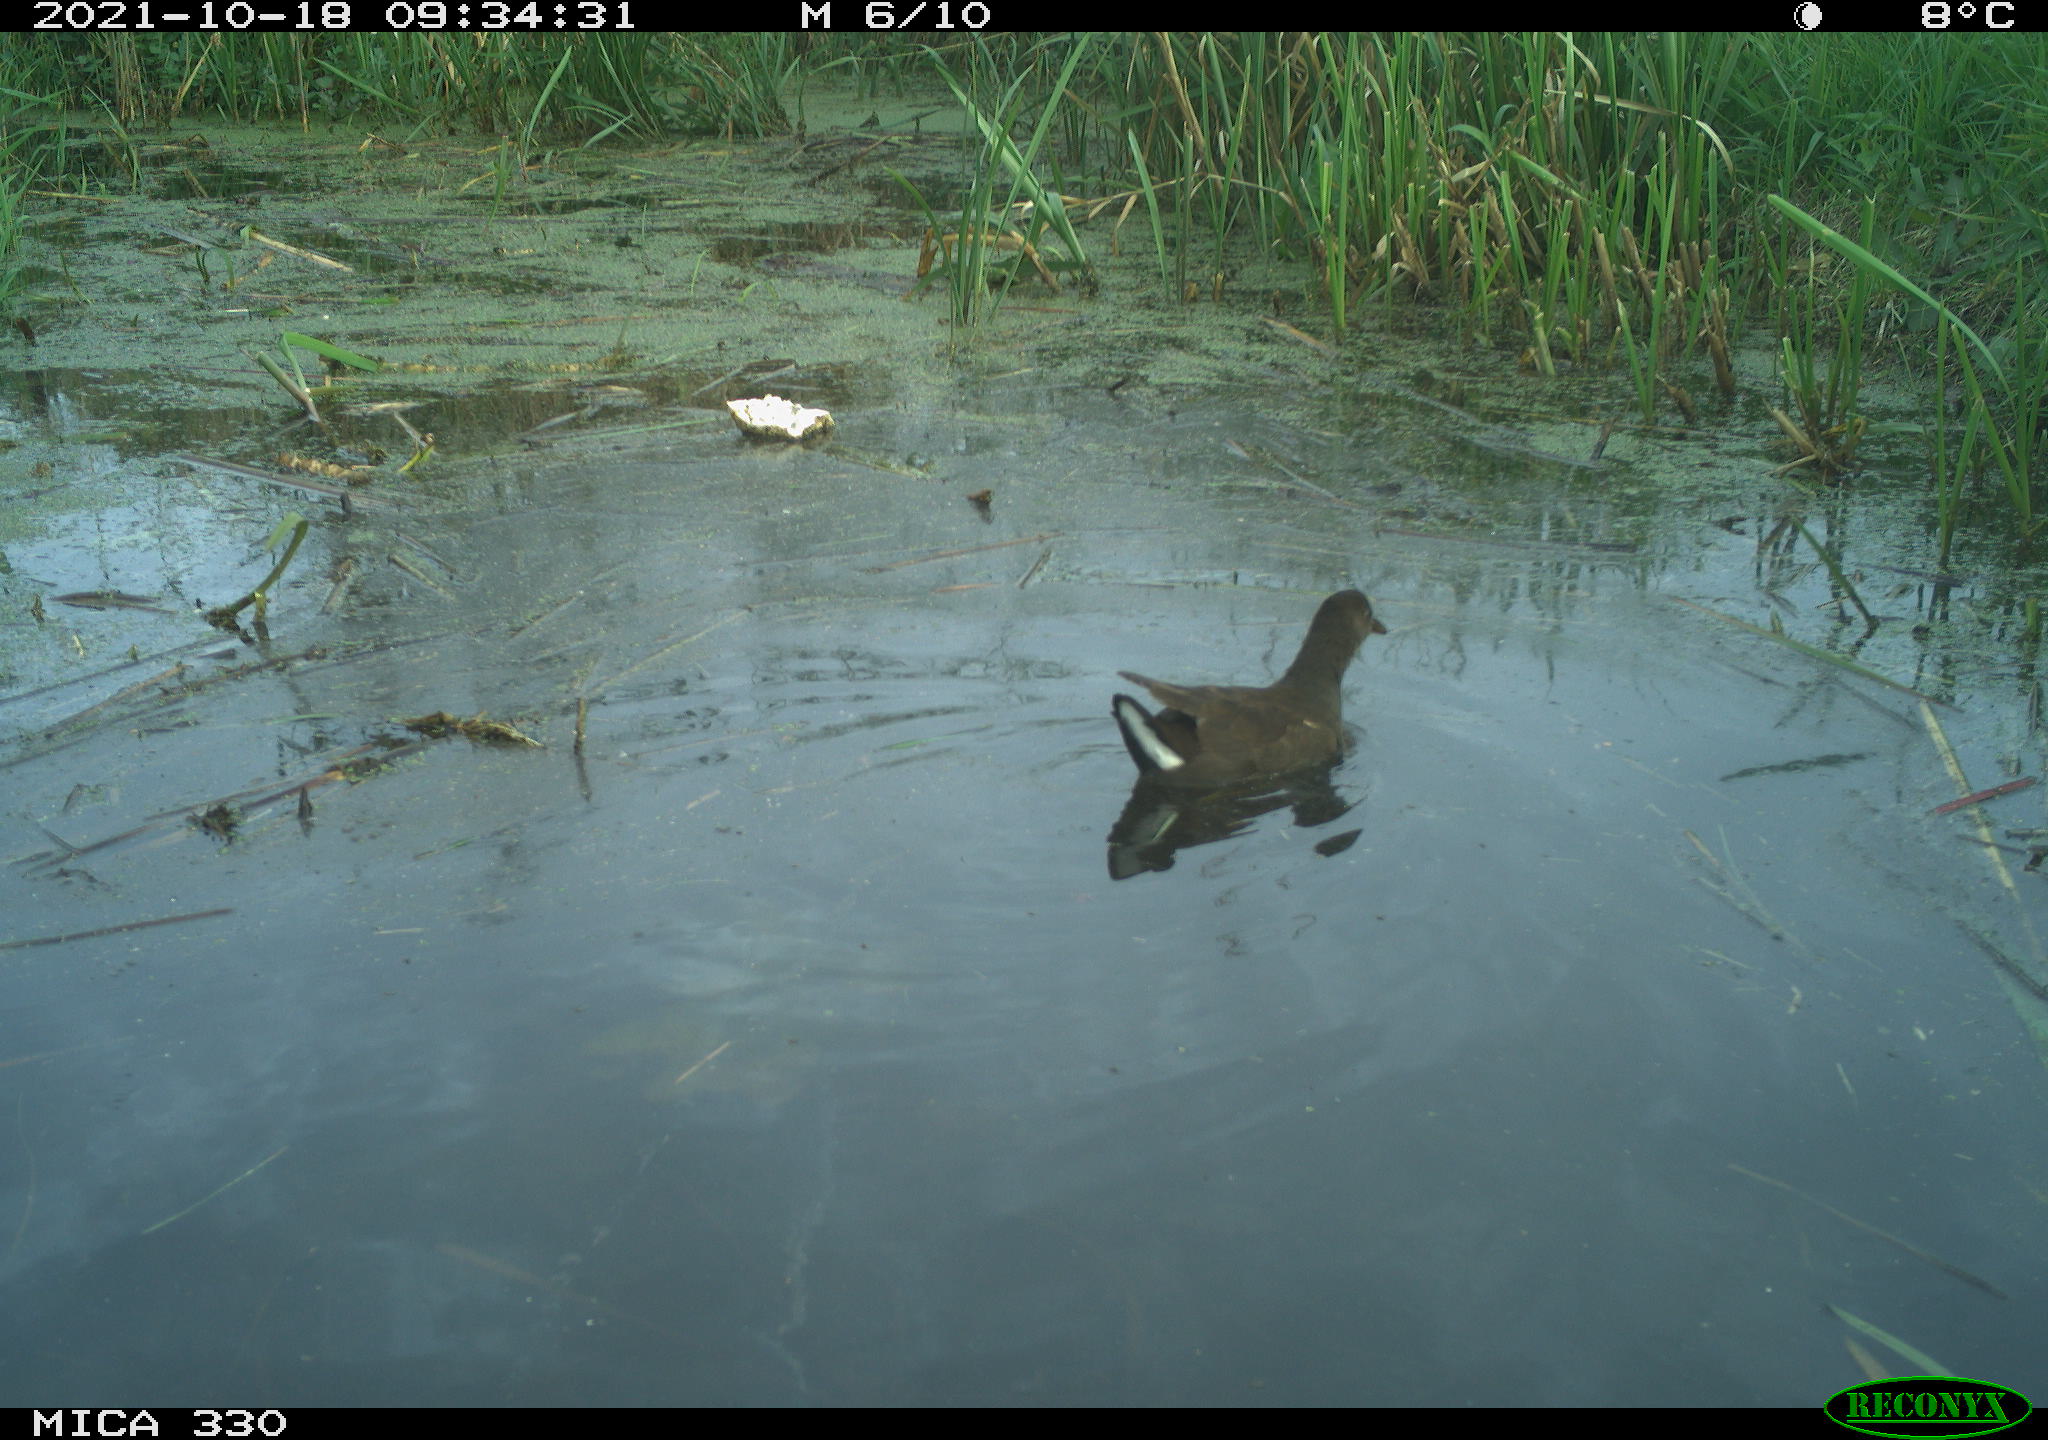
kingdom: Animalia
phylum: Chordata
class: Aves
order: Gruiformes
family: Rallidae
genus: Gallinula
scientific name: Gallinula chloropus
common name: Common moorhen
